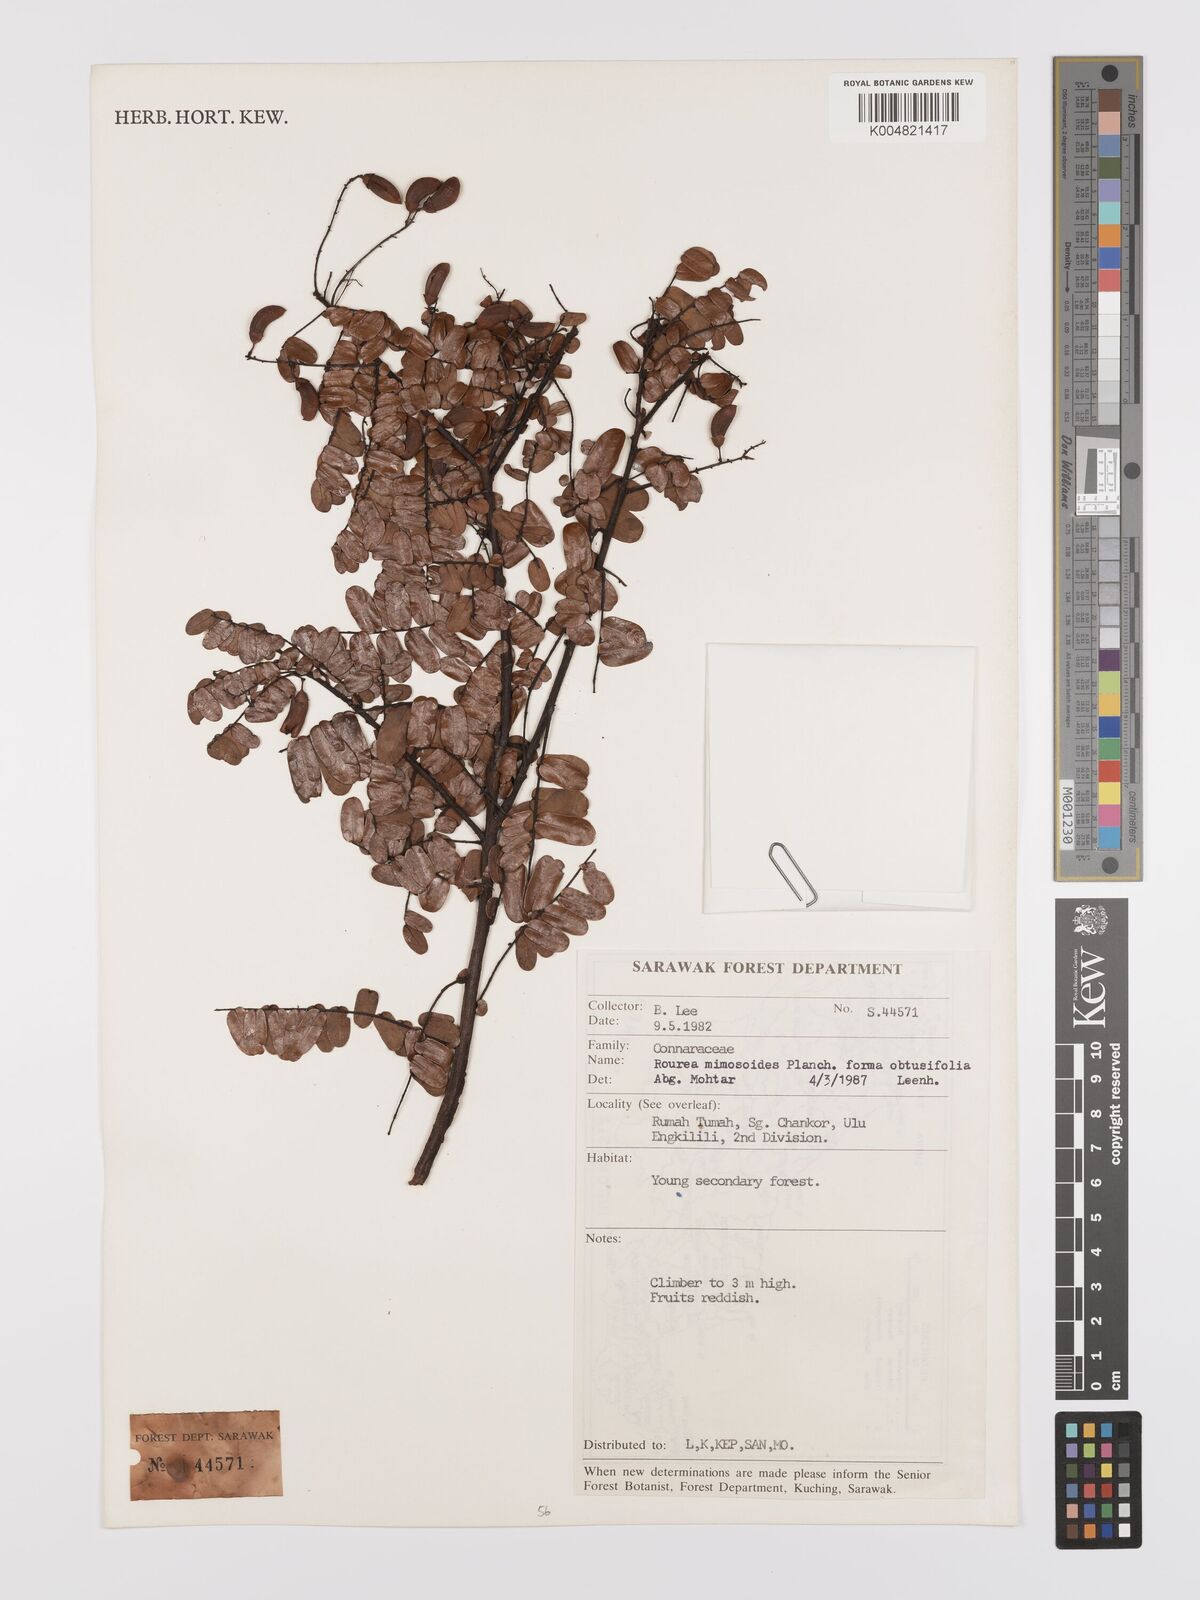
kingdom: Plantae
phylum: Tracheophyta
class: Magnoliopsida
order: Oxalidales
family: Connaraceae
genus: Rourea
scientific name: Rourea mimosoides
